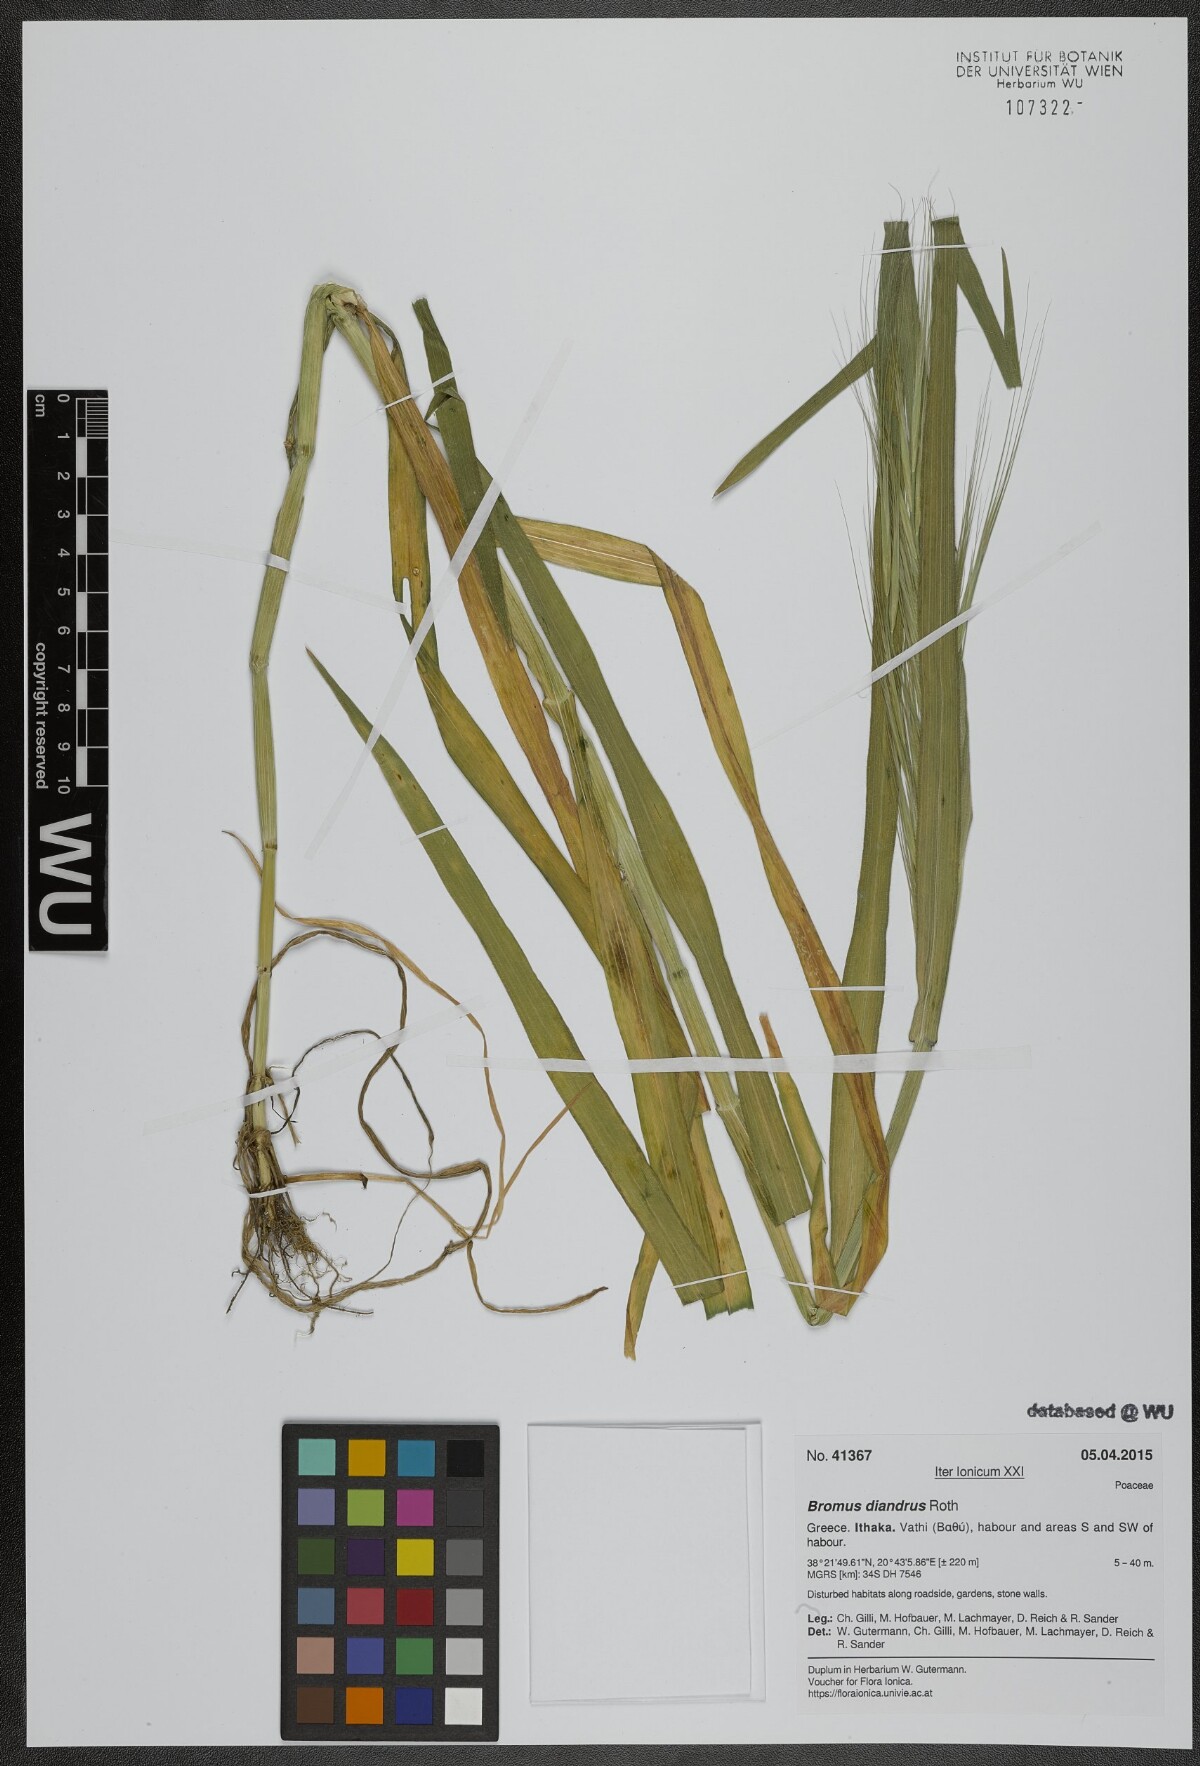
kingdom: Plantae
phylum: Tracheophyta
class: Liliopsida
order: Poales
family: Poaceae
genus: Bromus
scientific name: Bromus diandrus
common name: Ripgut brome
